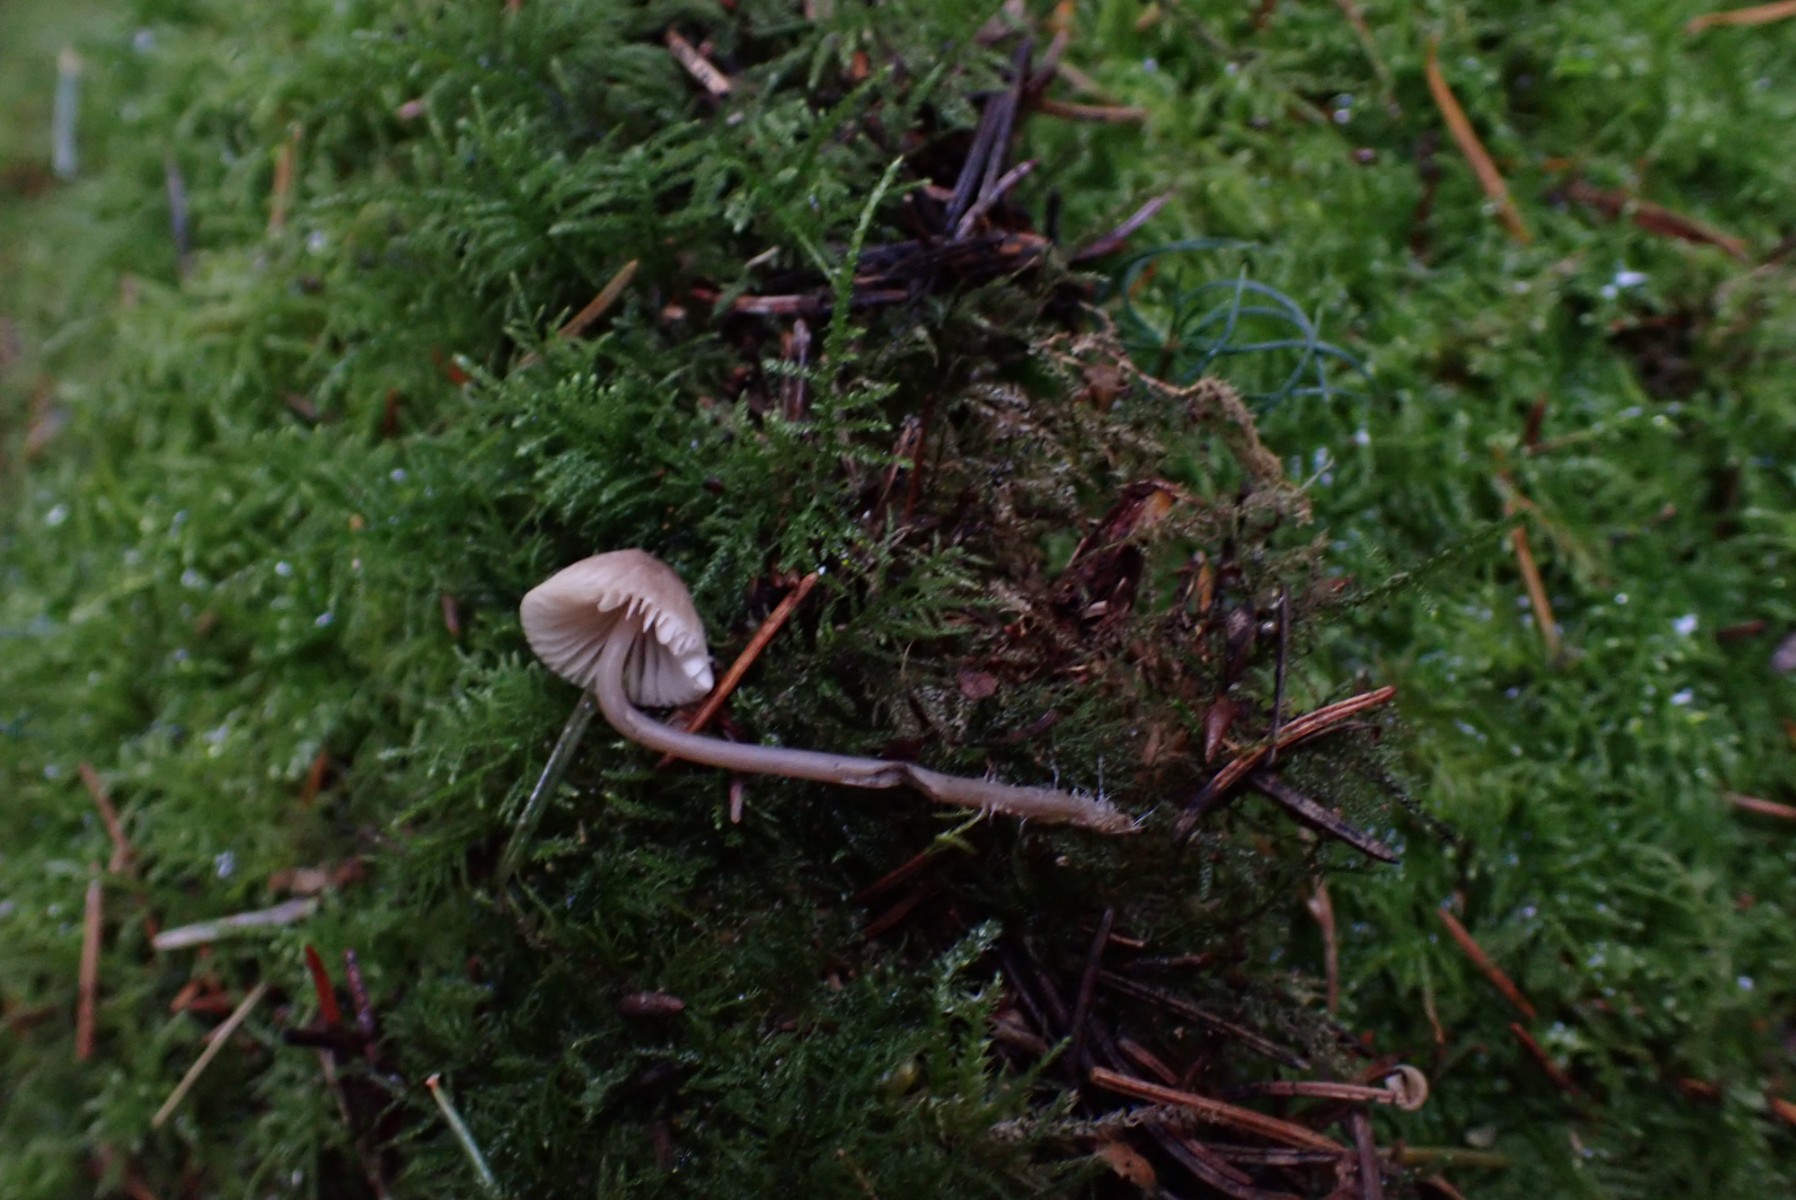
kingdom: Fungi
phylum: Basidiomycota
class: Agaricomycetes
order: Agaricales
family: Mycenaceae
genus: Mycena
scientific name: Mycena metata
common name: rødlig huesvamp
